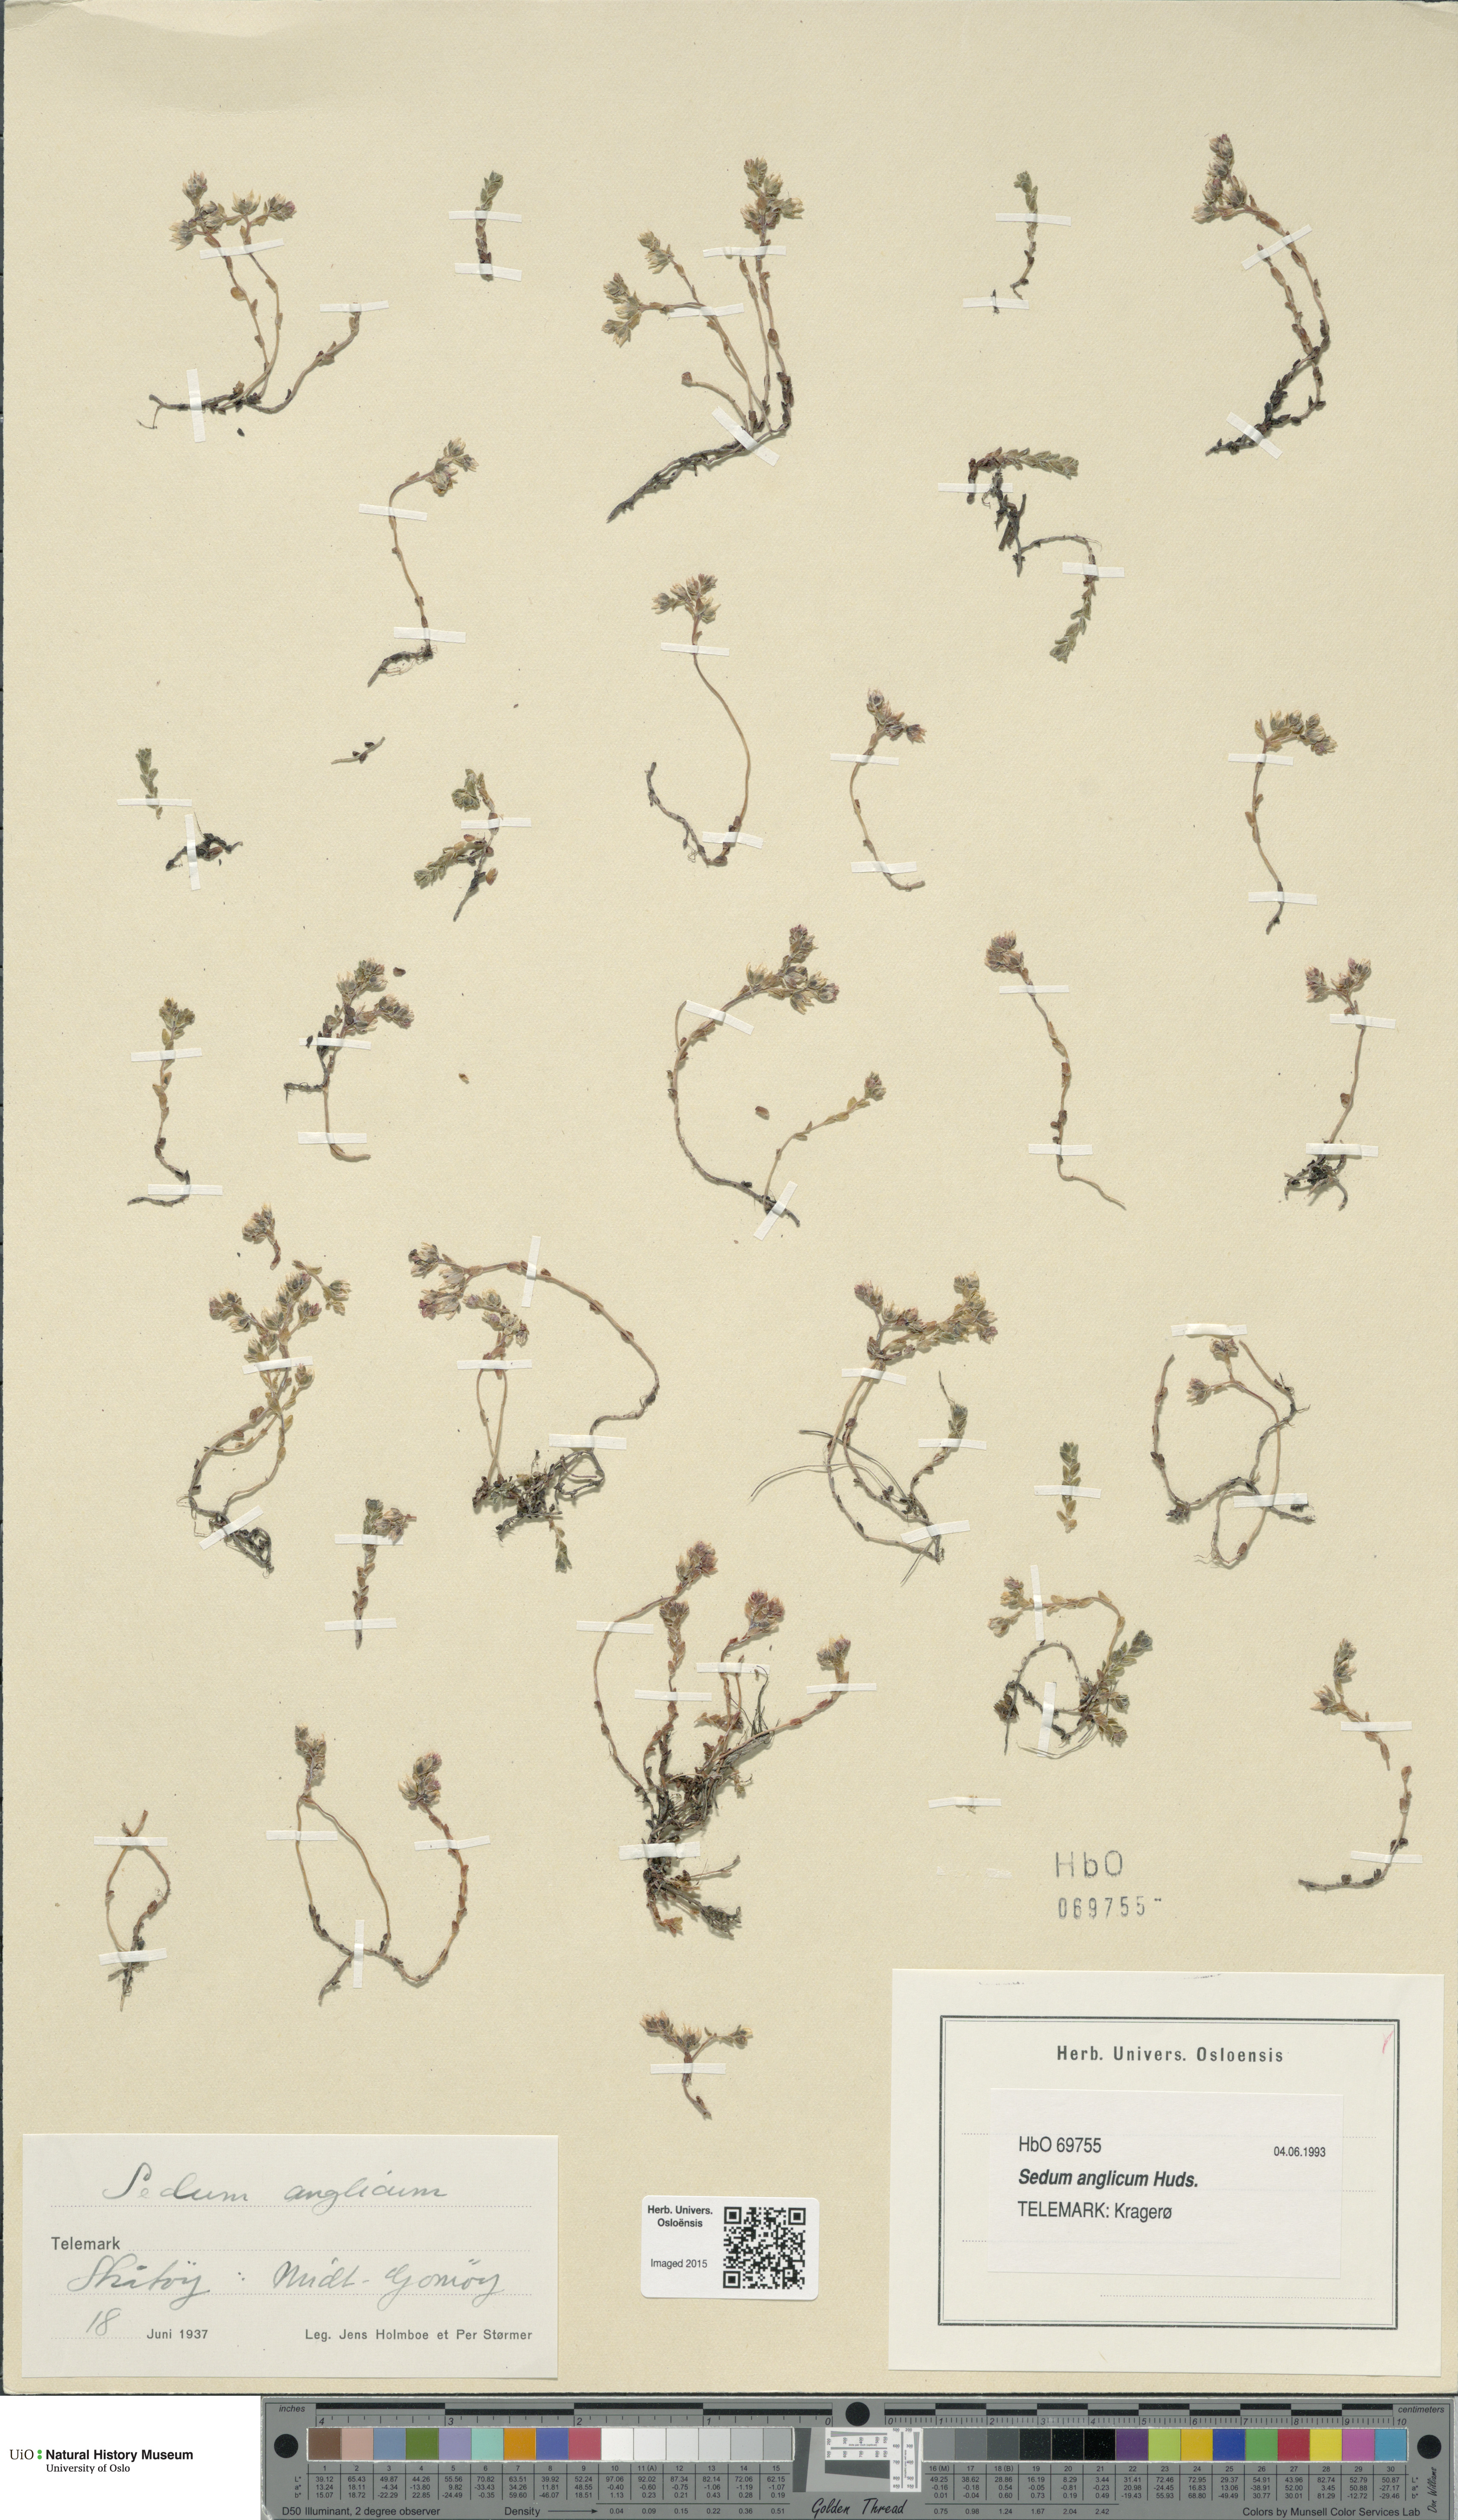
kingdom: Plantae
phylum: Tracheophyta
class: Magnoliopsida
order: Saxifragales
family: Crassulaceae
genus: Sedum
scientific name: Sedum anglicum
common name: English stonecrop
